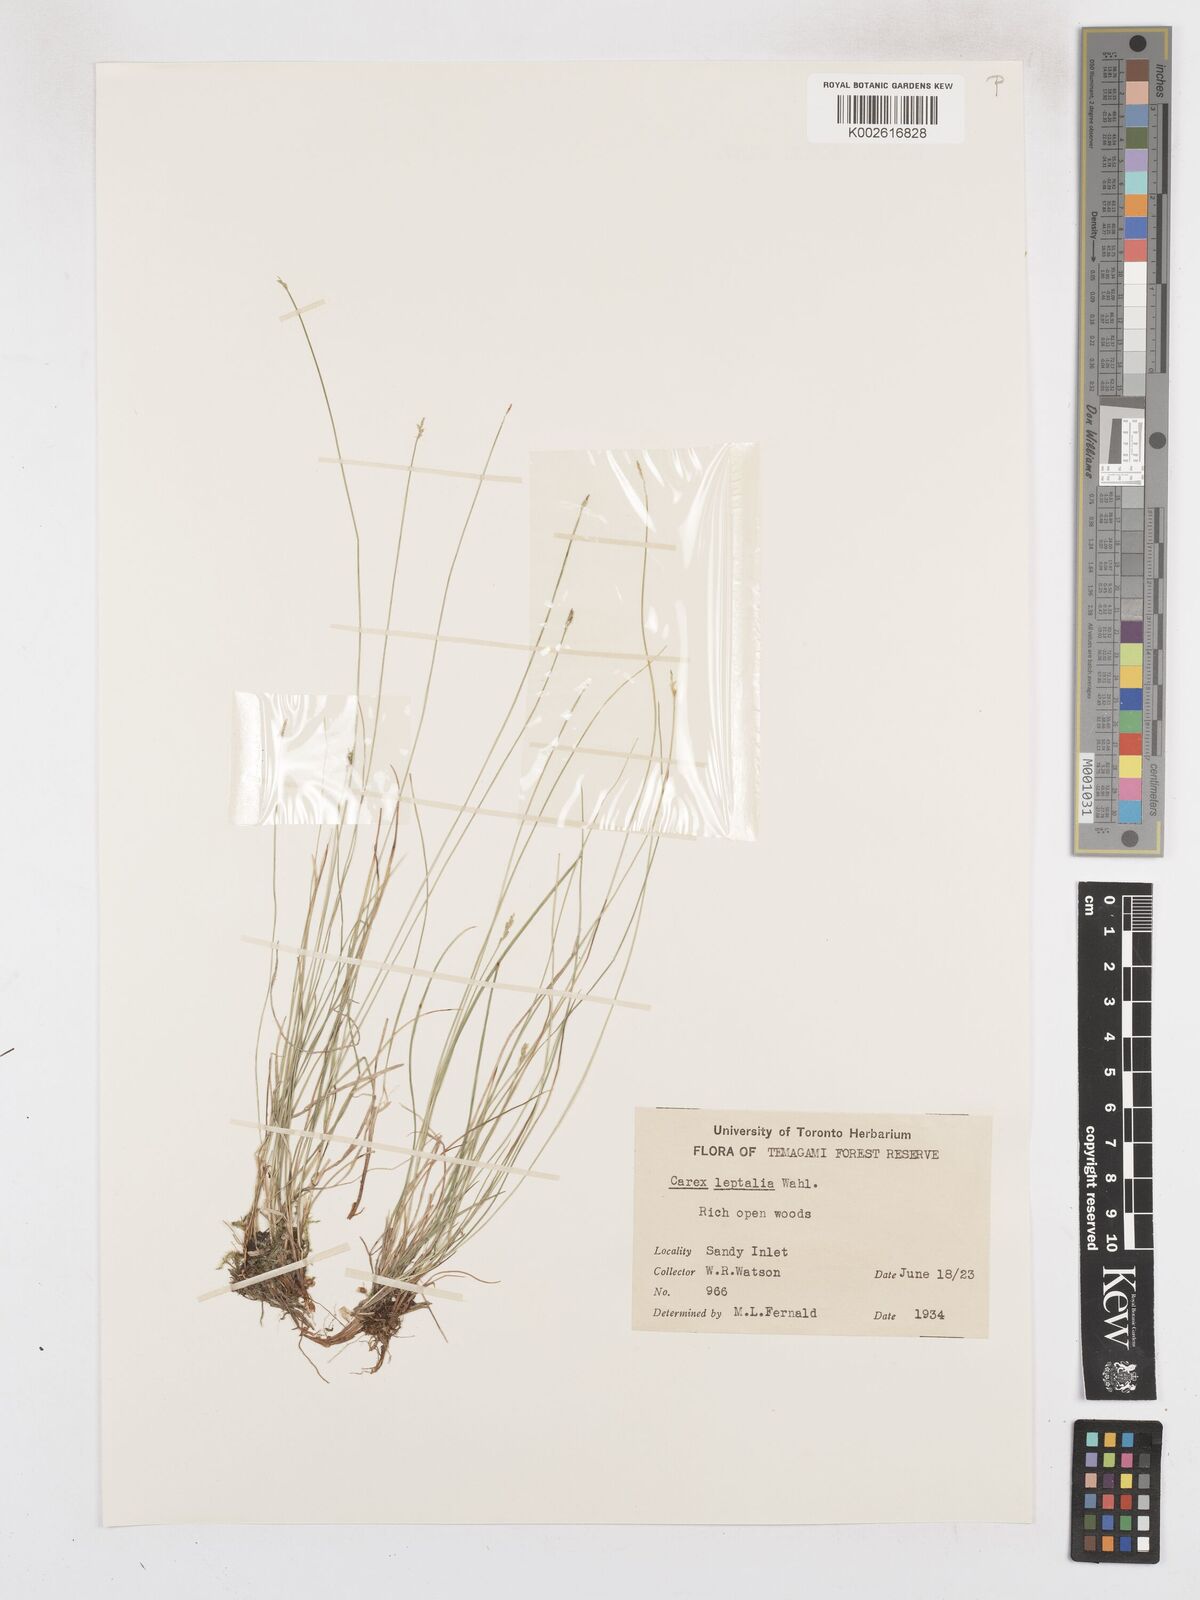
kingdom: Plantae
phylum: Tracheophyta
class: Liliopsida
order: Poales
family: Cyperaceae
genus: Carex
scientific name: Carex leptalea
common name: Bristly-stalked sedge
